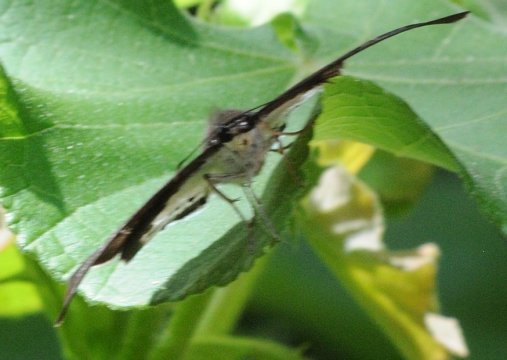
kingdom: Animalia
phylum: Arthropoda
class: Insecta
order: Lepidoptera
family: Hesperiidae
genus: Tagiades
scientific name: Tagiades flesus
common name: Clouded Flat
